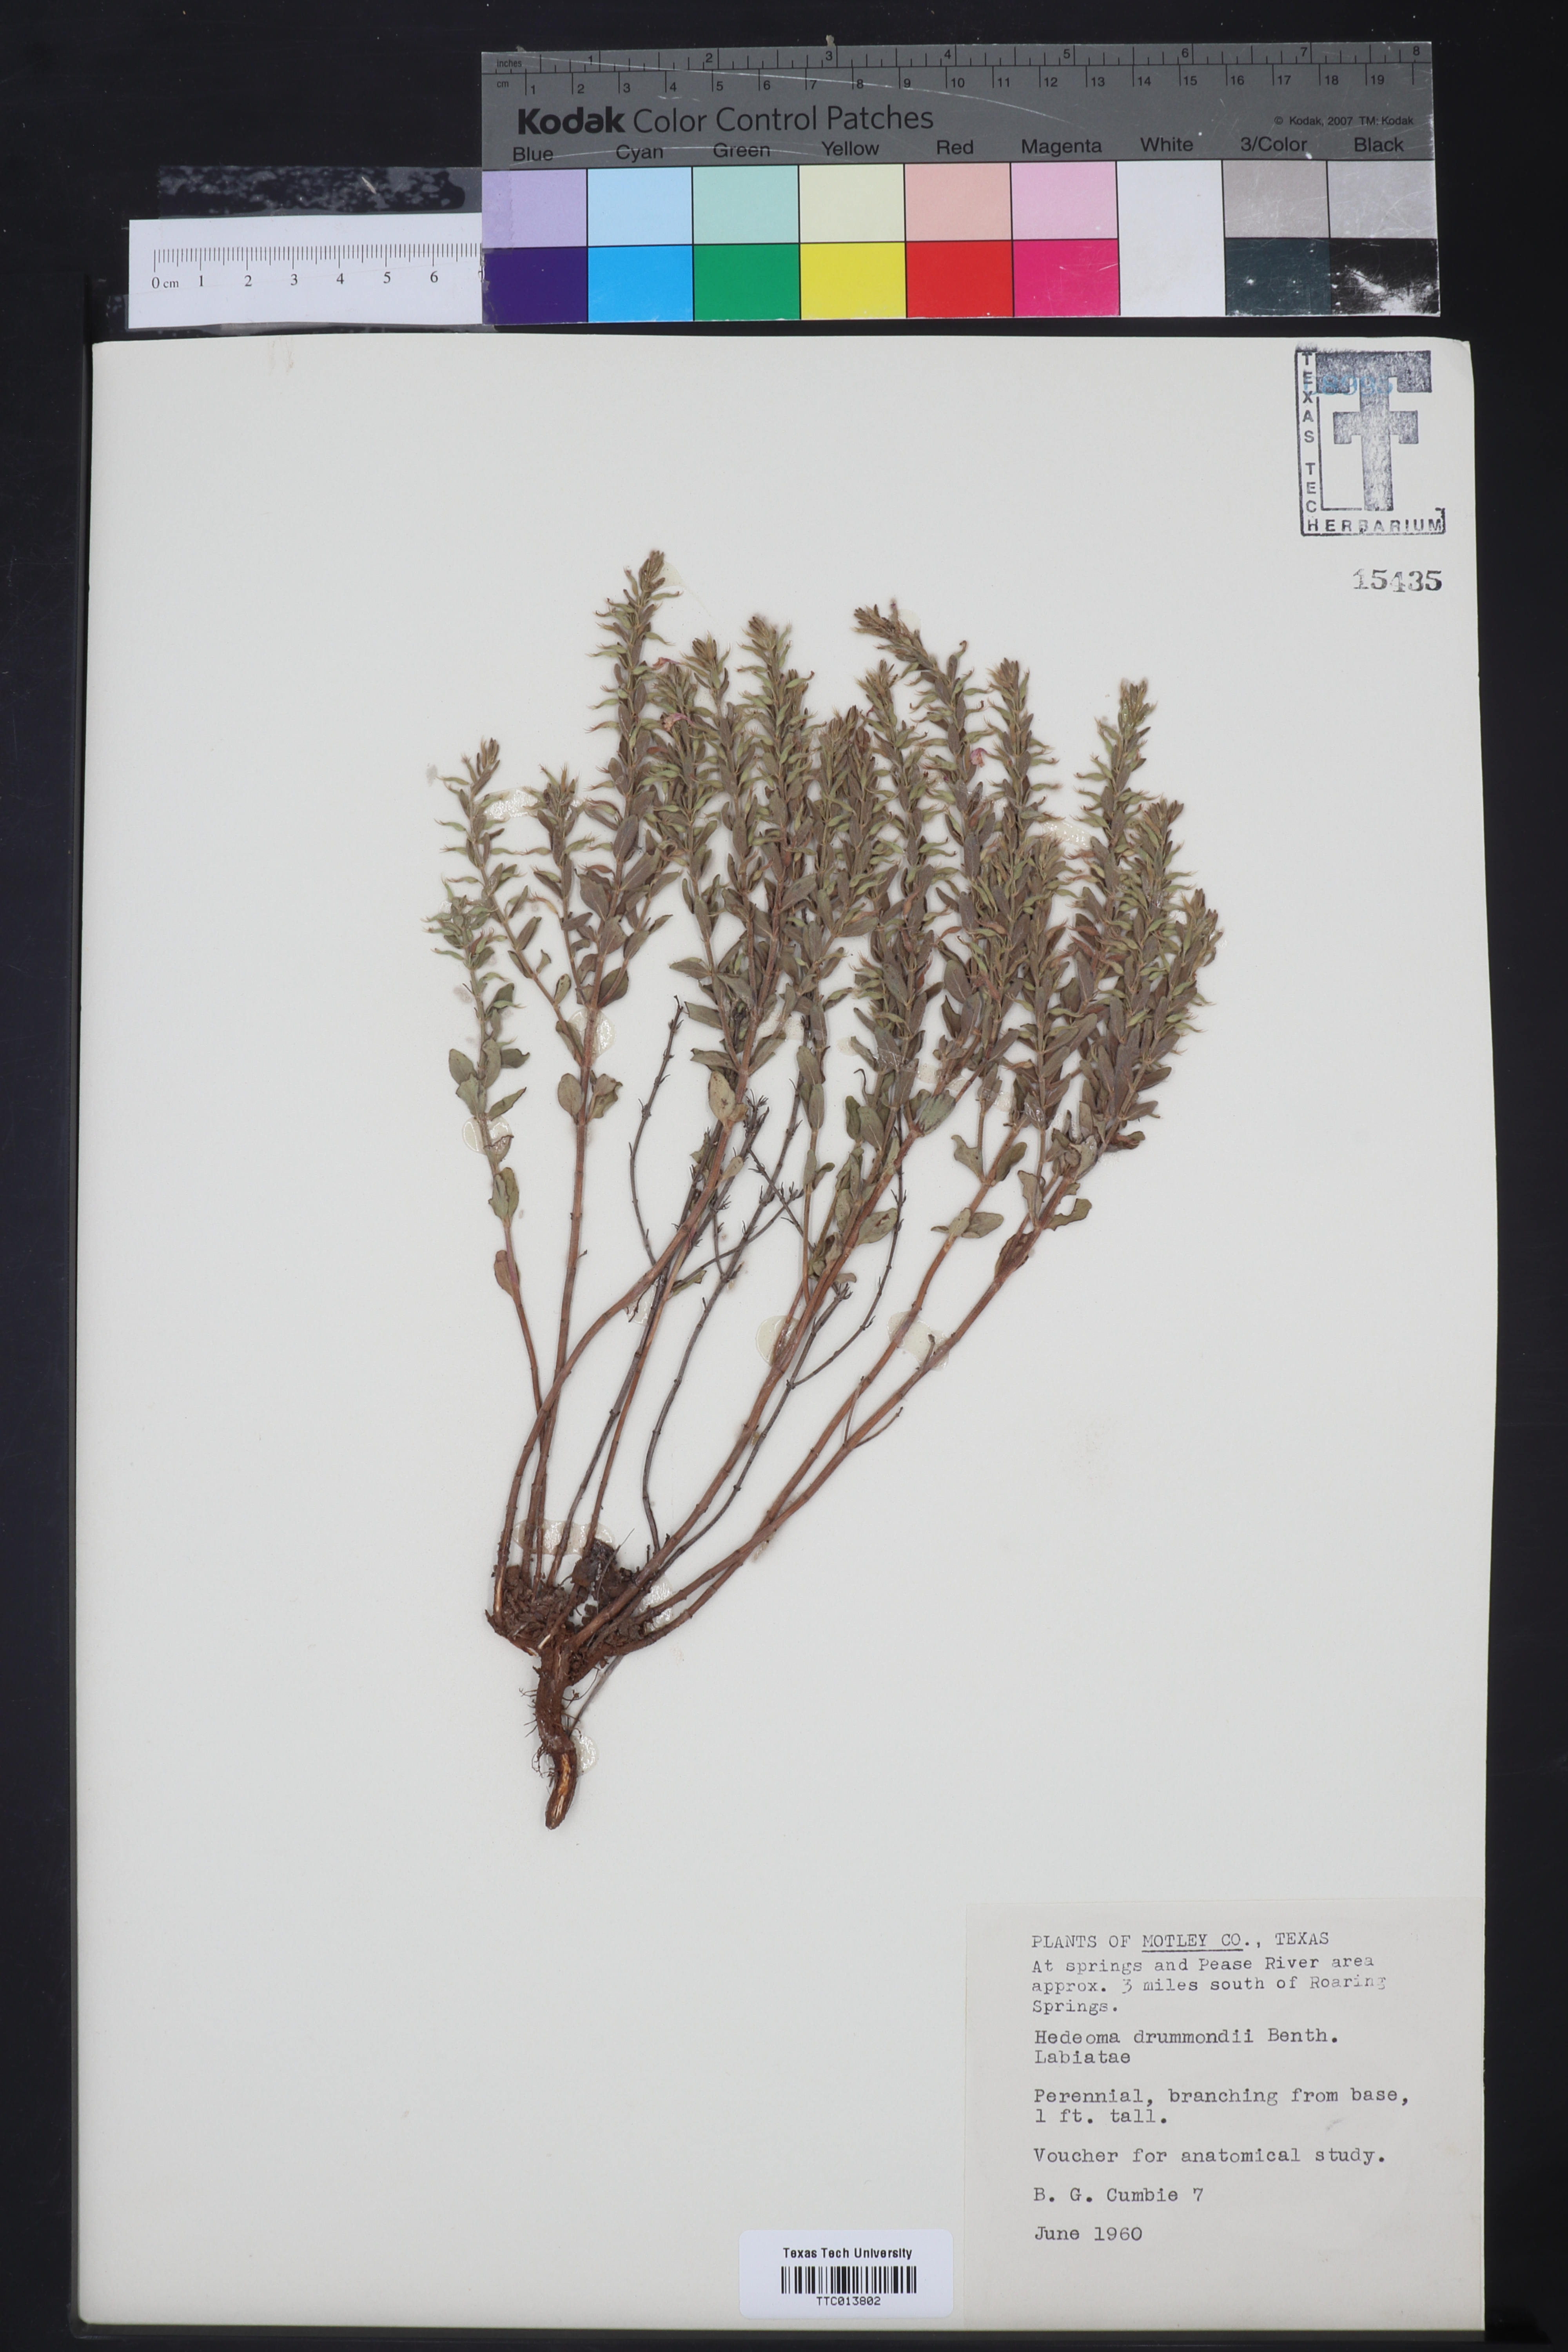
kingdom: Plantae
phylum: Tracheophyta
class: Magnoliopsida
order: Lamiales
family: Lamiaceae
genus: Hedeoma
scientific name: Hedeoma drummondii
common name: New mexico pennyroyal
